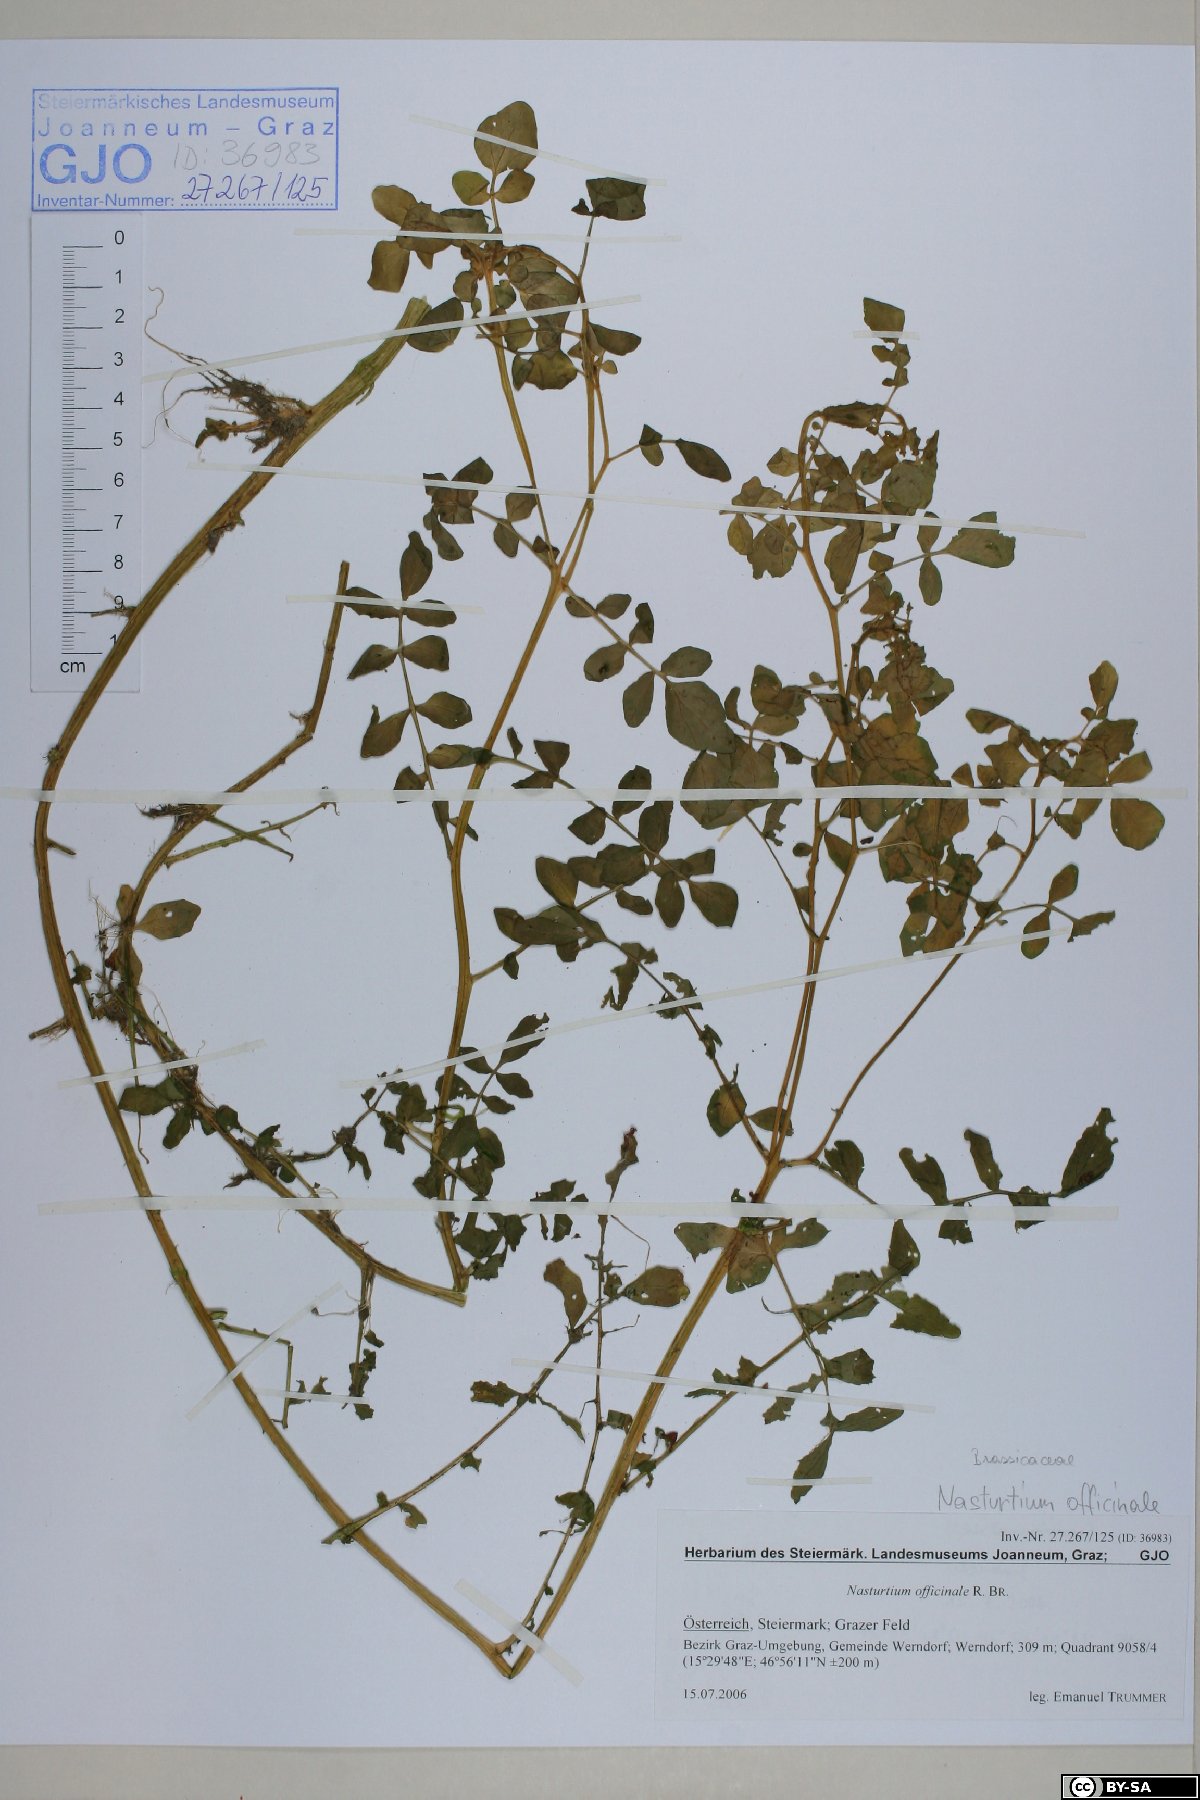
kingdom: Plantae
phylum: Tracheophyta
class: Magnoliopsida
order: Brassicales
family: Brassicaceae
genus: Nasturtium
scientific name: Nasturtium officinale
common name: Watercress
